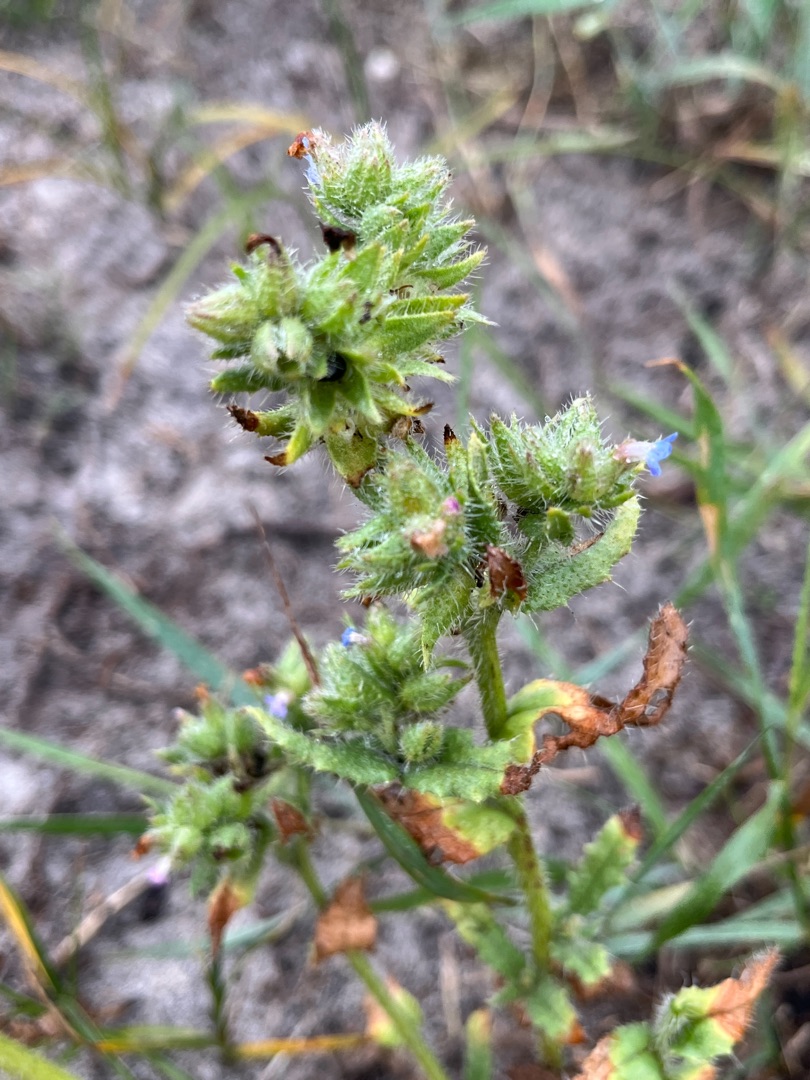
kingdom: Plantae
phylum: Tracheophyta
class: Magnoliopsida
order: Boraginales
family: Boraginaceae
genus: Lycopsis
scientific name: Lycopsis arvensis
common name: Krumhals
